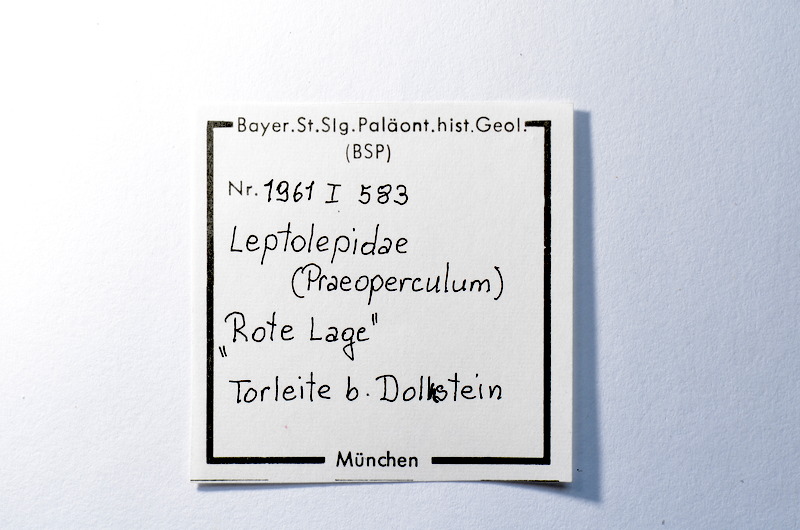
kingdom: Animalia
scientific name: Animalia
